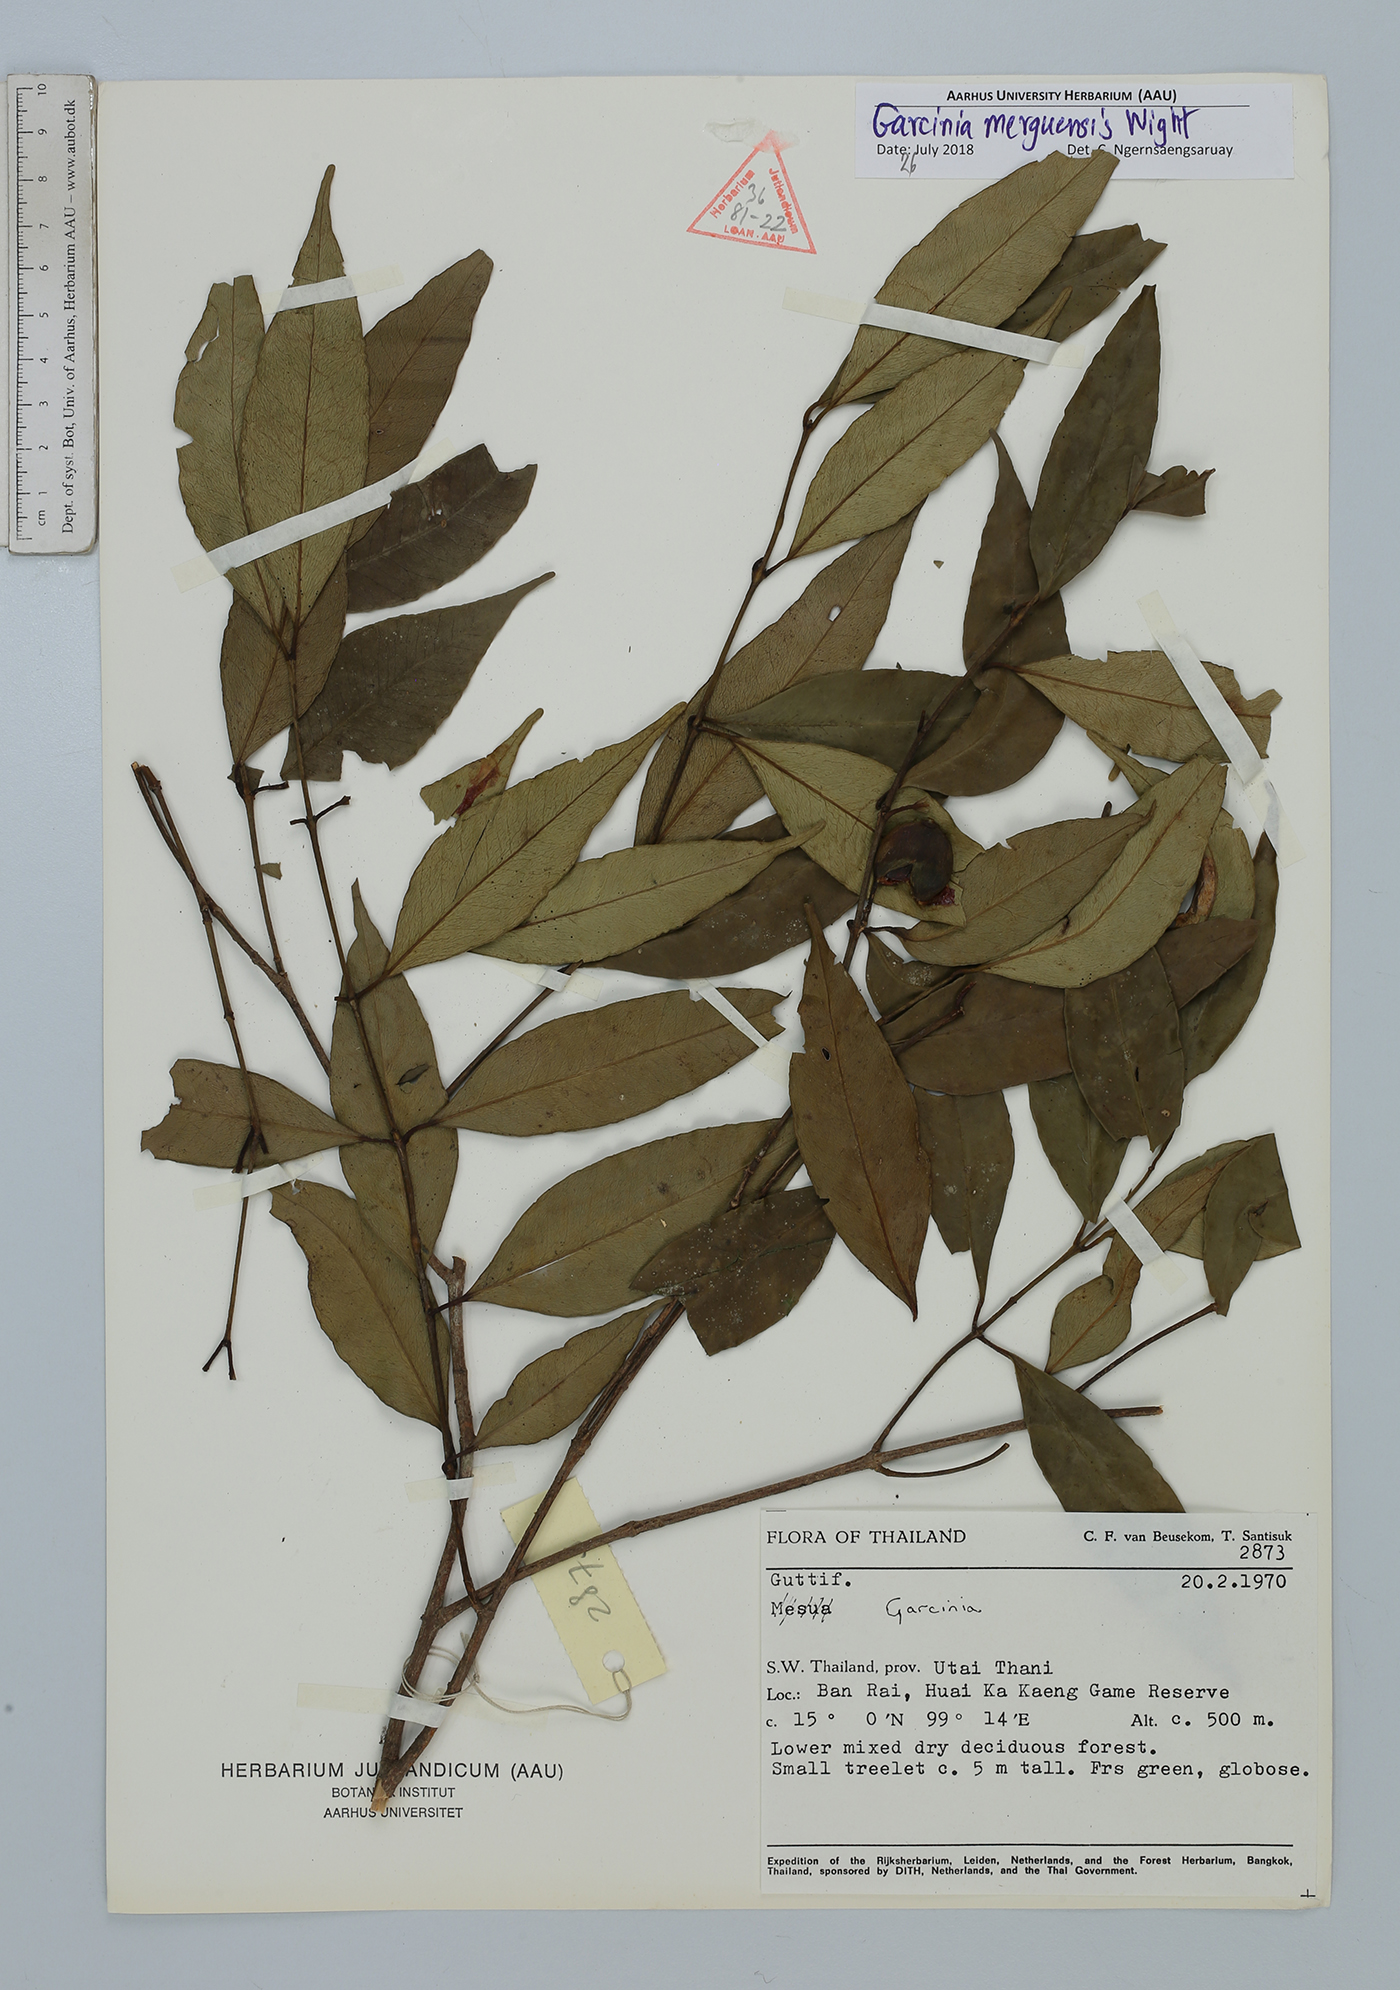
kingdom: Plantae
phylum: Tracheophyta
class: Magnoliopsida
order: Malpighiales
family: Clusiaceae
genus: Garcinia
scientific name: Garcinia merguensis
